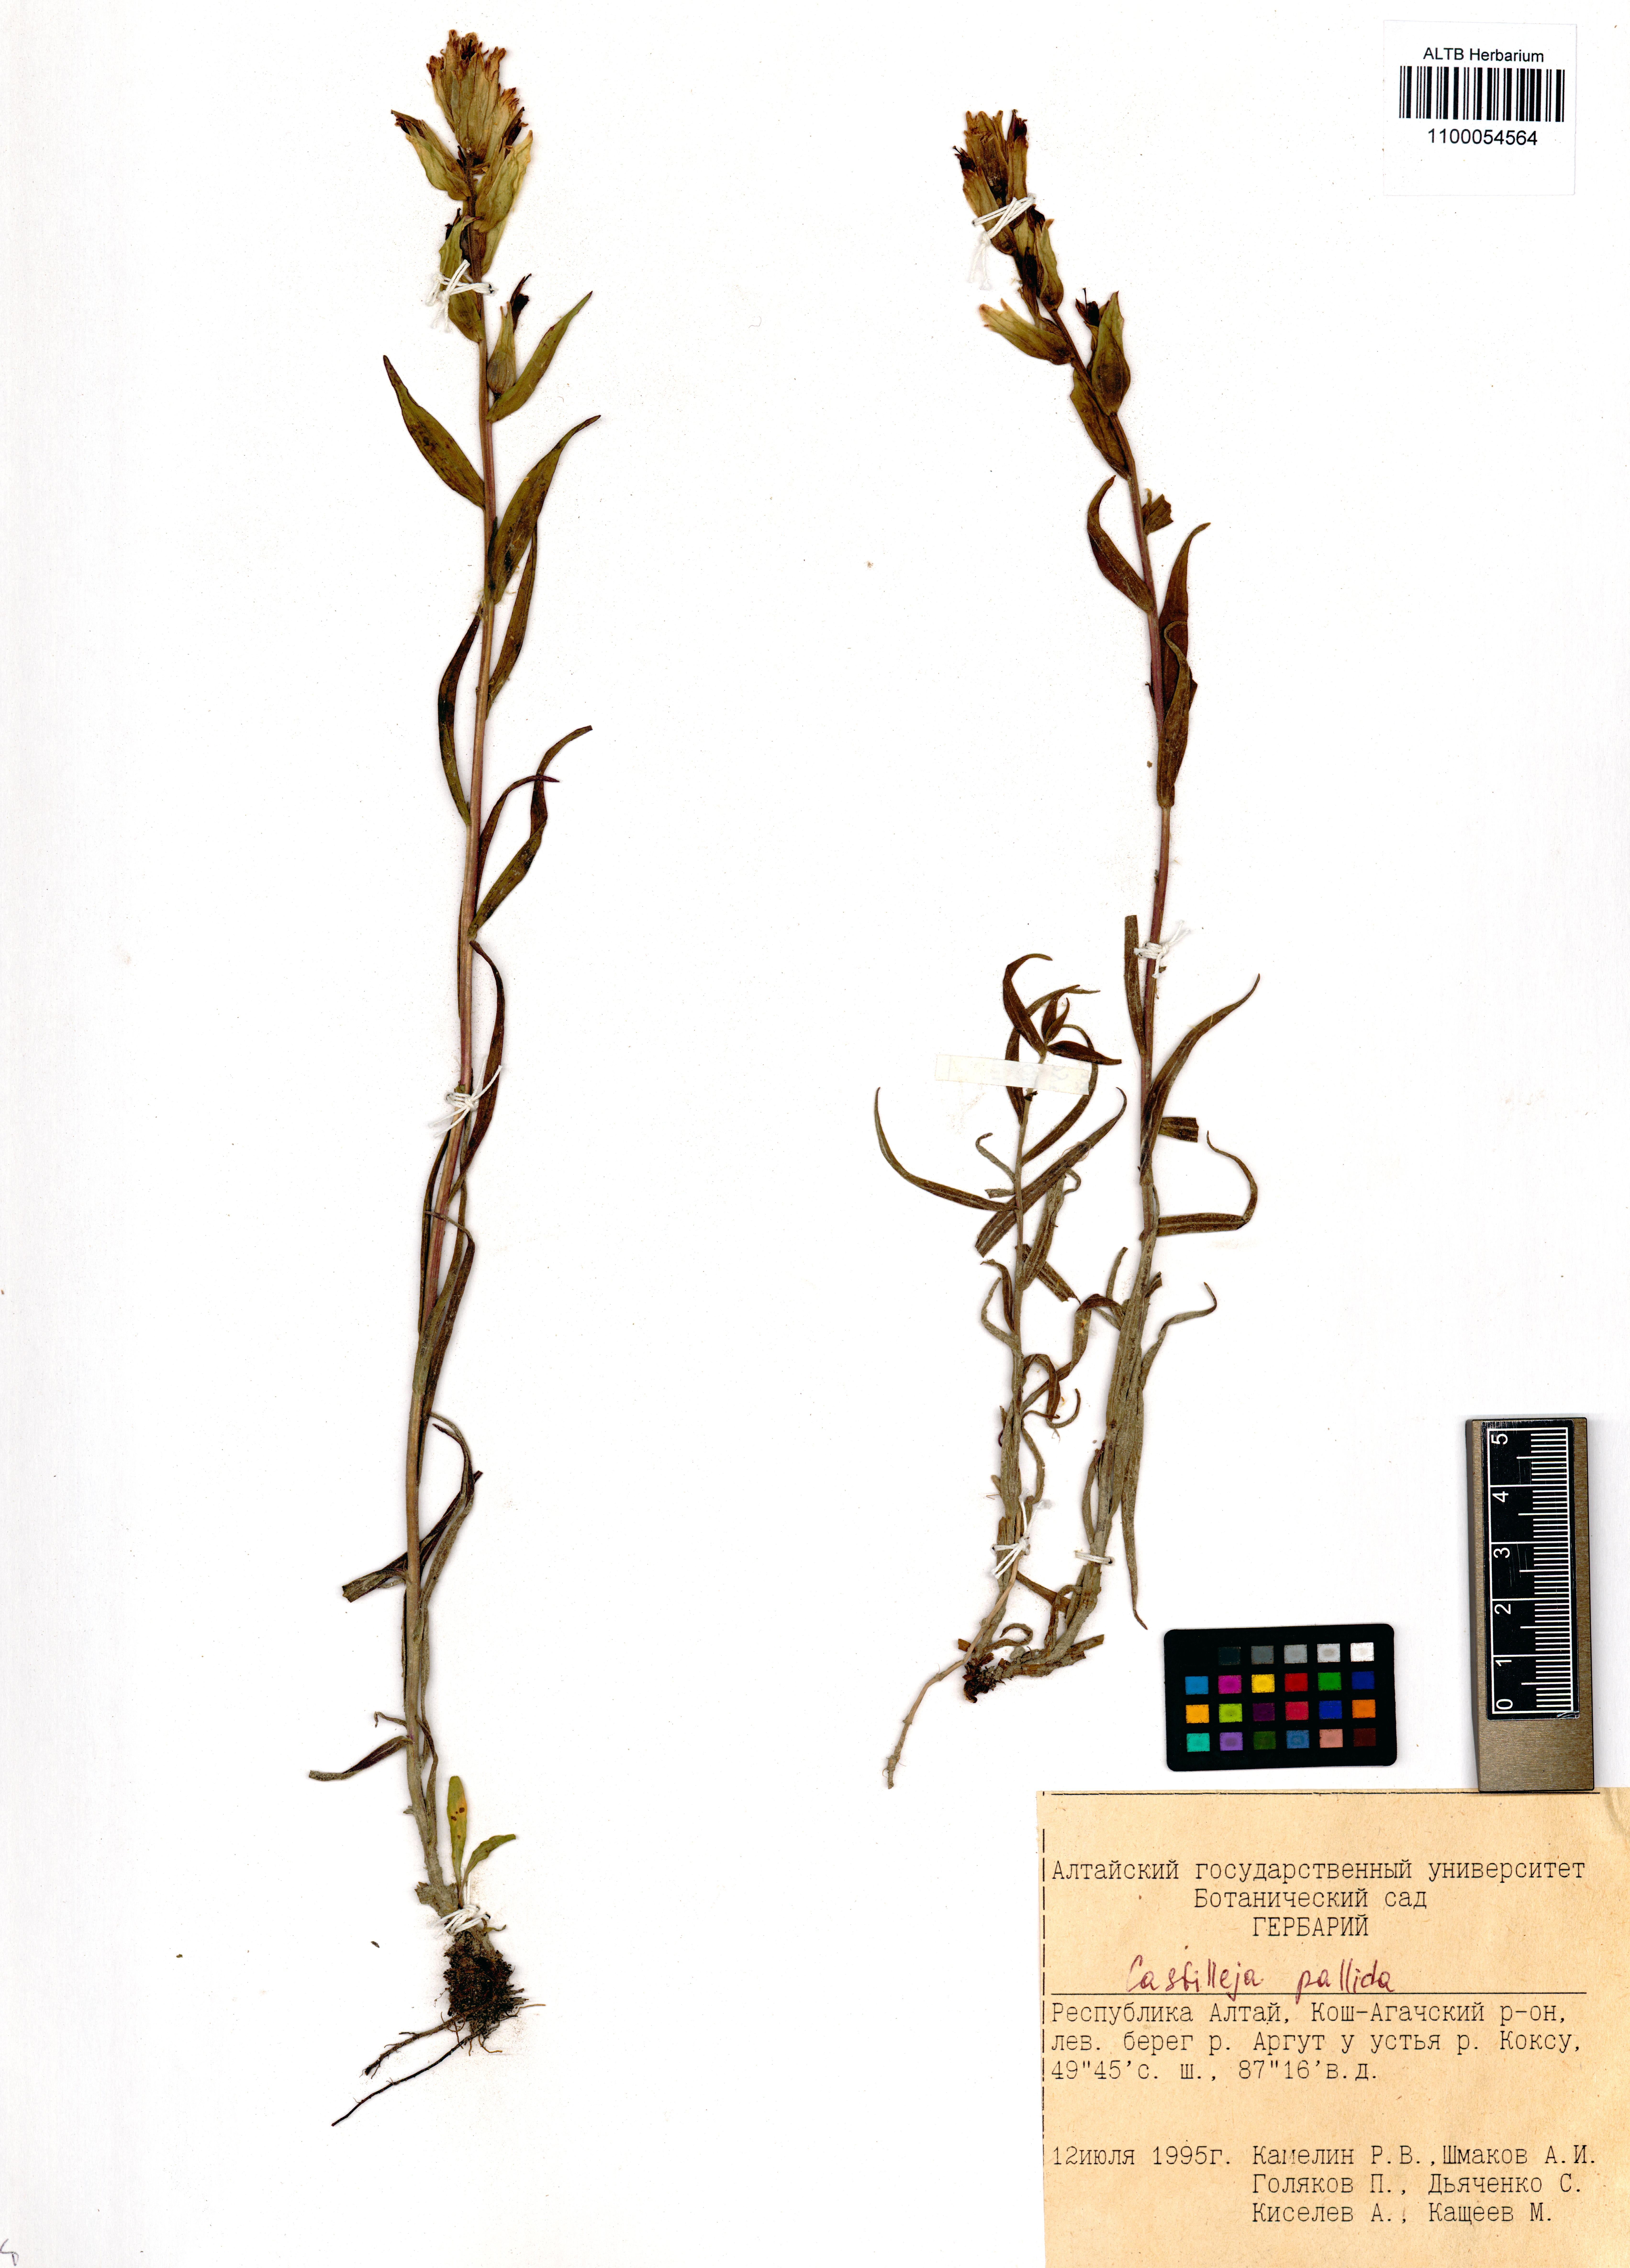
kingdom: Plantae
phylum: Tracheophyta
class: Magnoliopsida
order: Lamiales
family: Orobanchaceae
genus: Castilleja
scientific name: Castilleja pallida
